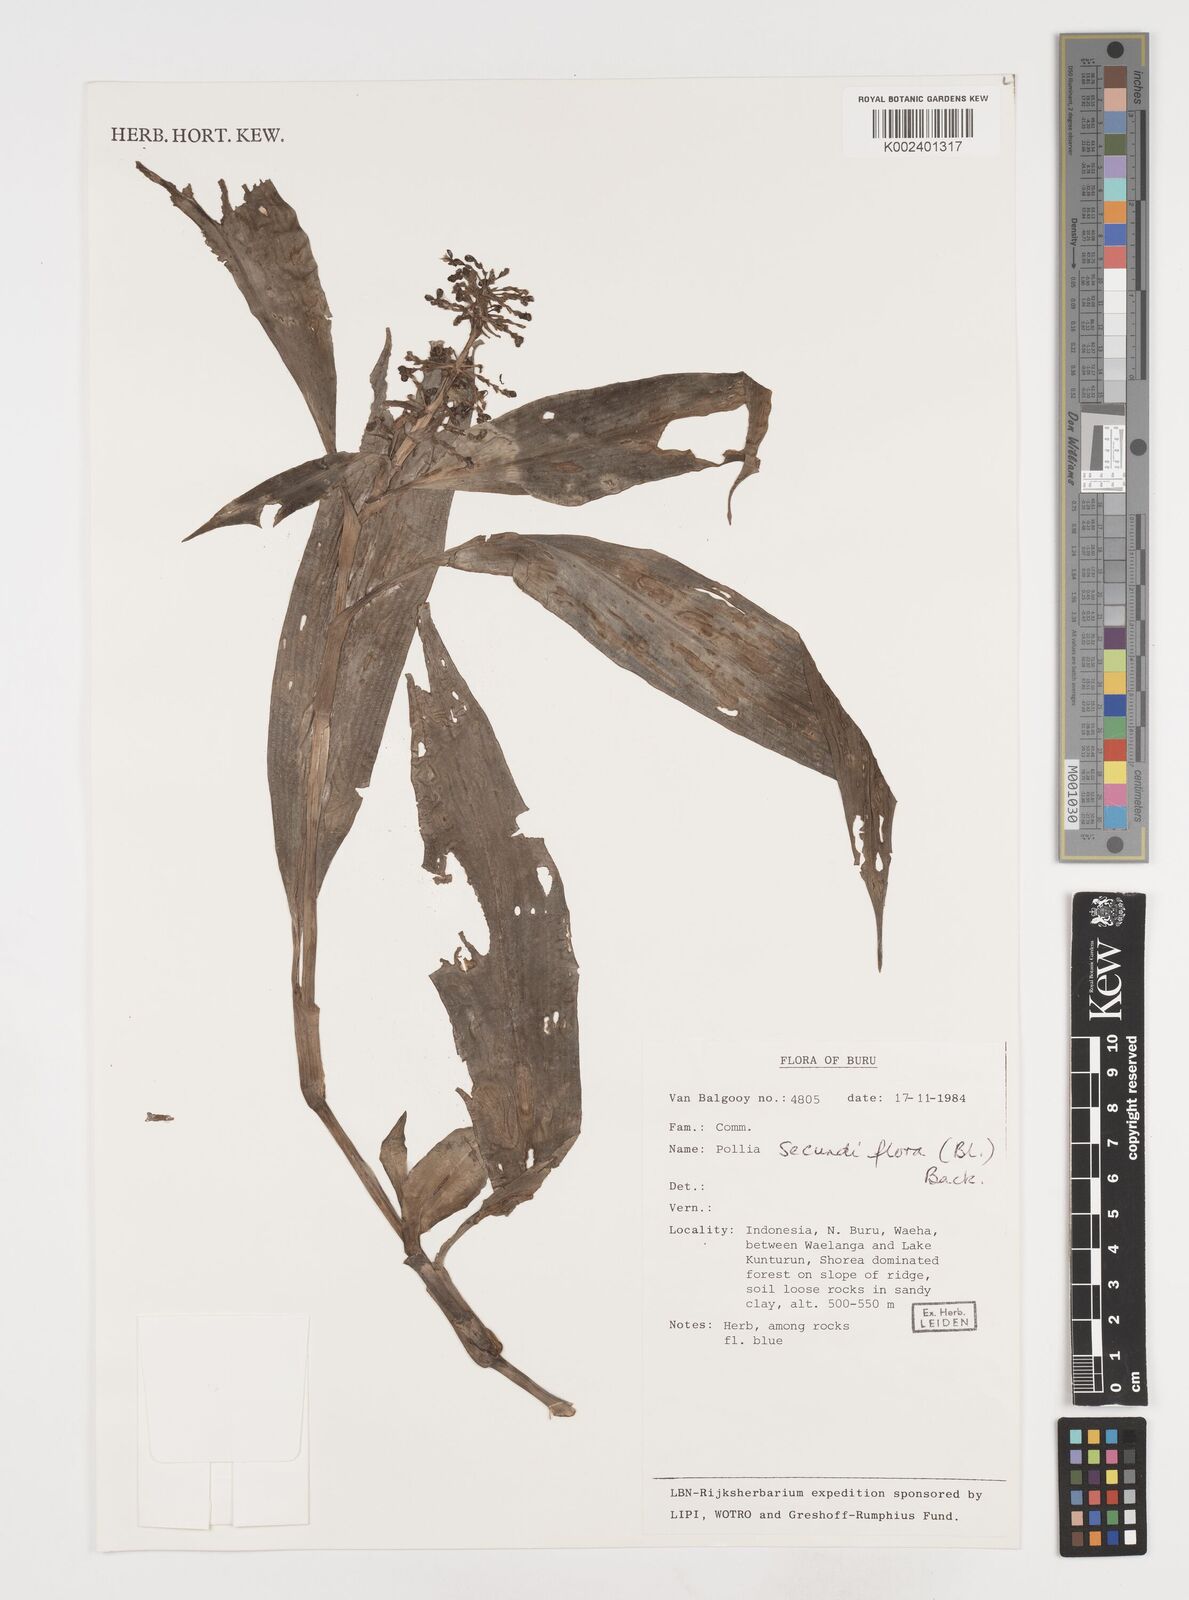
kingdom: Plantae
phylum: Tracheophyta
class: Liliopsida
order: Commelinales
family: Commelinaceae
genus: Pollia
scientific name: Pollia secundiflora
